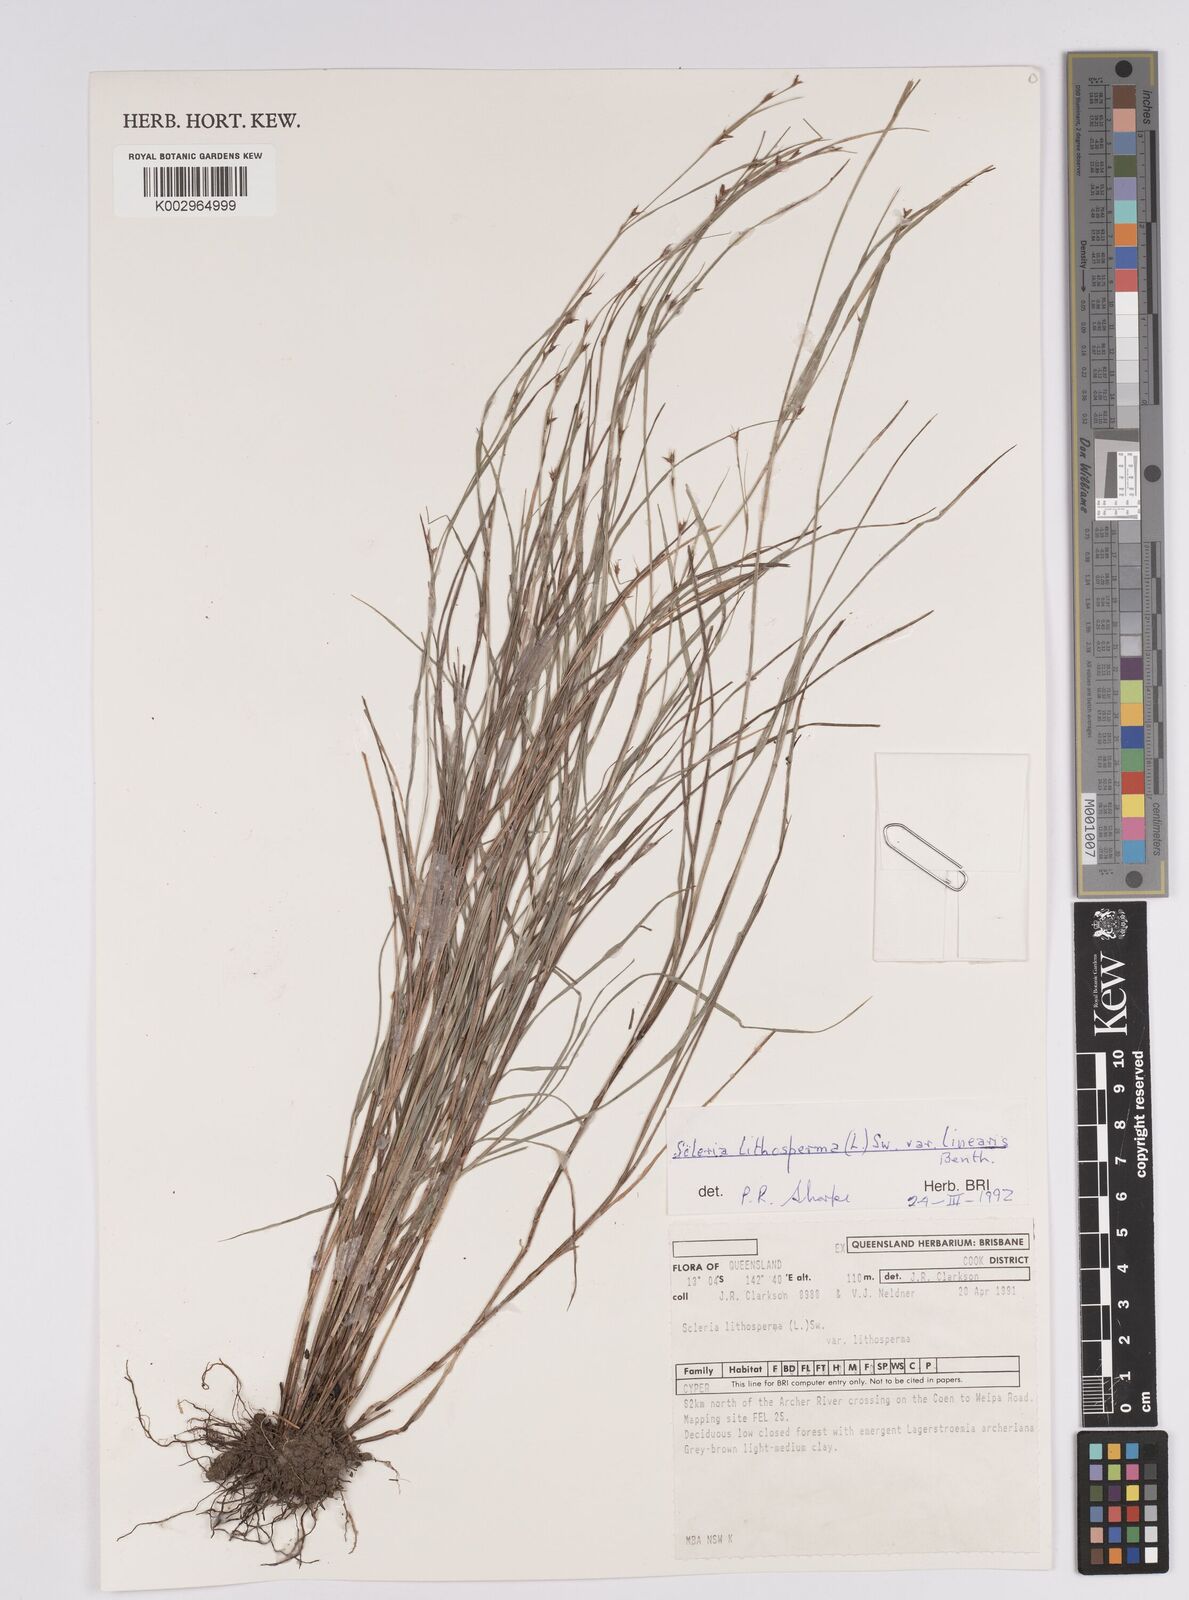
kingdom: Plantae
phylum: Tracheophyta
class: Liliopsida
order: Poales
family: Cyperaceae
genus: Scleria
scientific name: Scleria lithosperma
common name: Florida keys nut-rush
